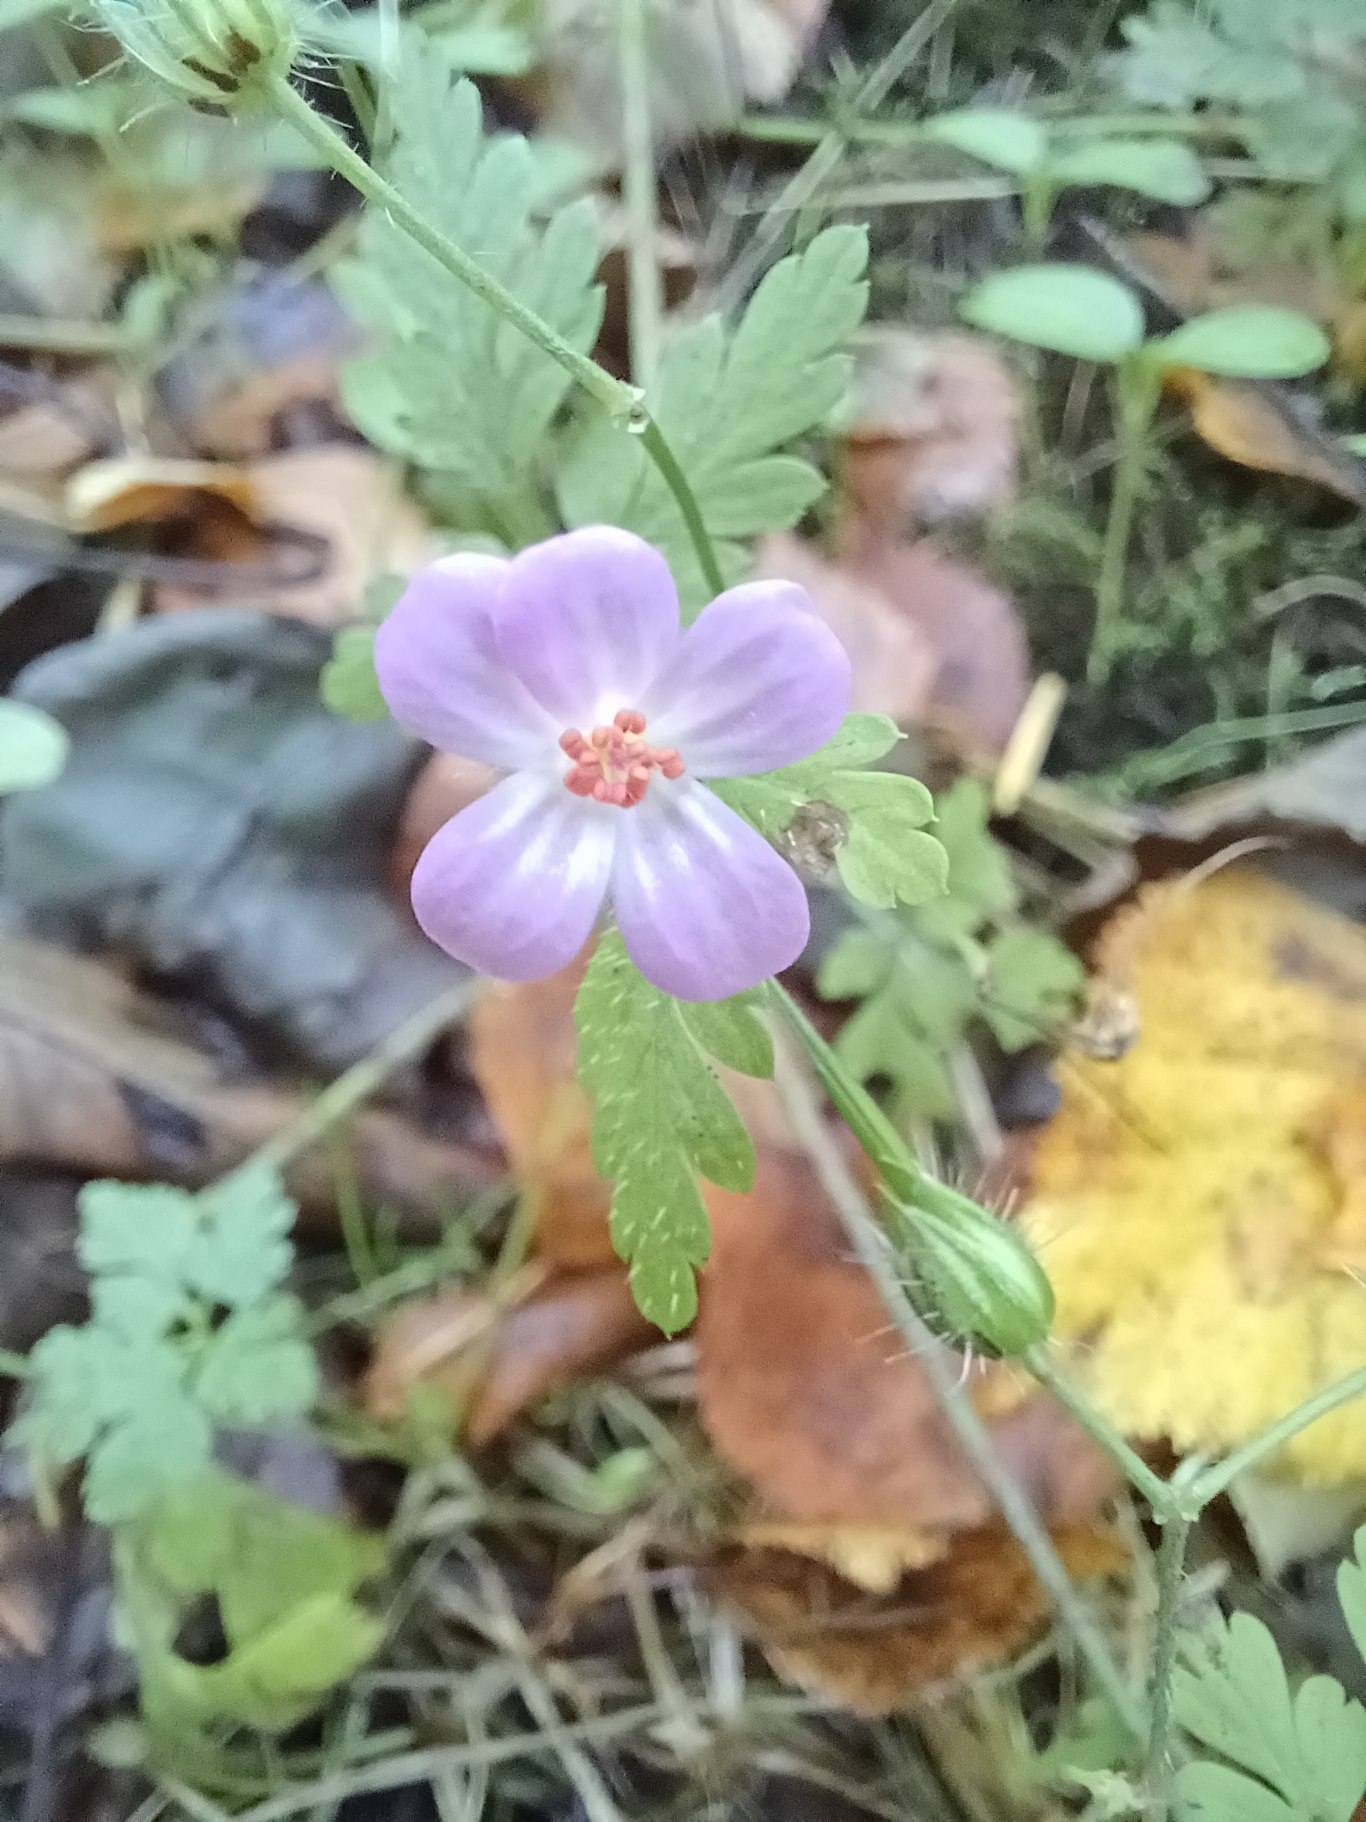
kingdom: Plantae
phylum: Tracheophyta
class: Magnoliopsida
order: Geraniales
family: Geraniaceae
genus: Geranium
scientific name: Geranium robertianum
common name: Stinkende storkenæb
